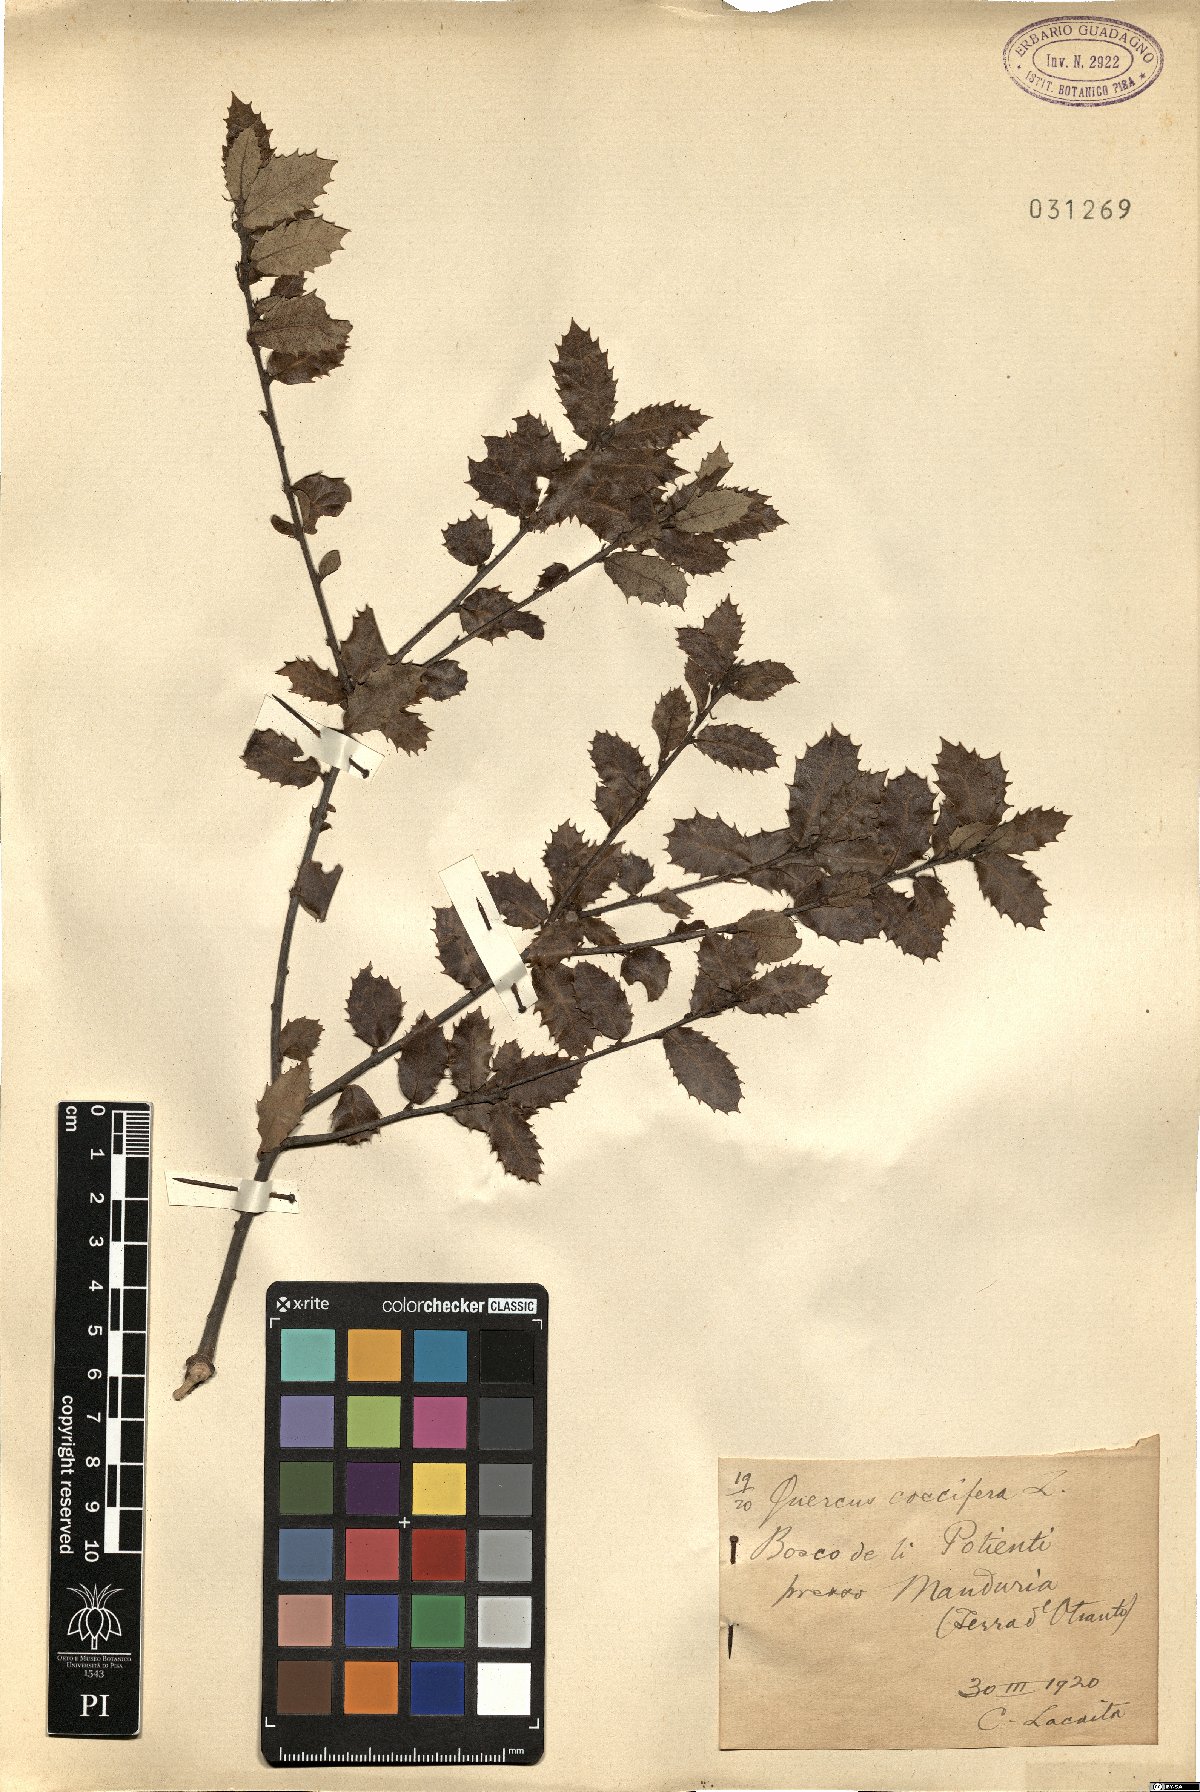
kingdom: Plantae
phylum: Tracheophyta
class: Magnoliopsida
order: Fagales
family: Fagaceae
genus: Quercus
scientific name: Quercus coccifera
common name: Kermes oak
